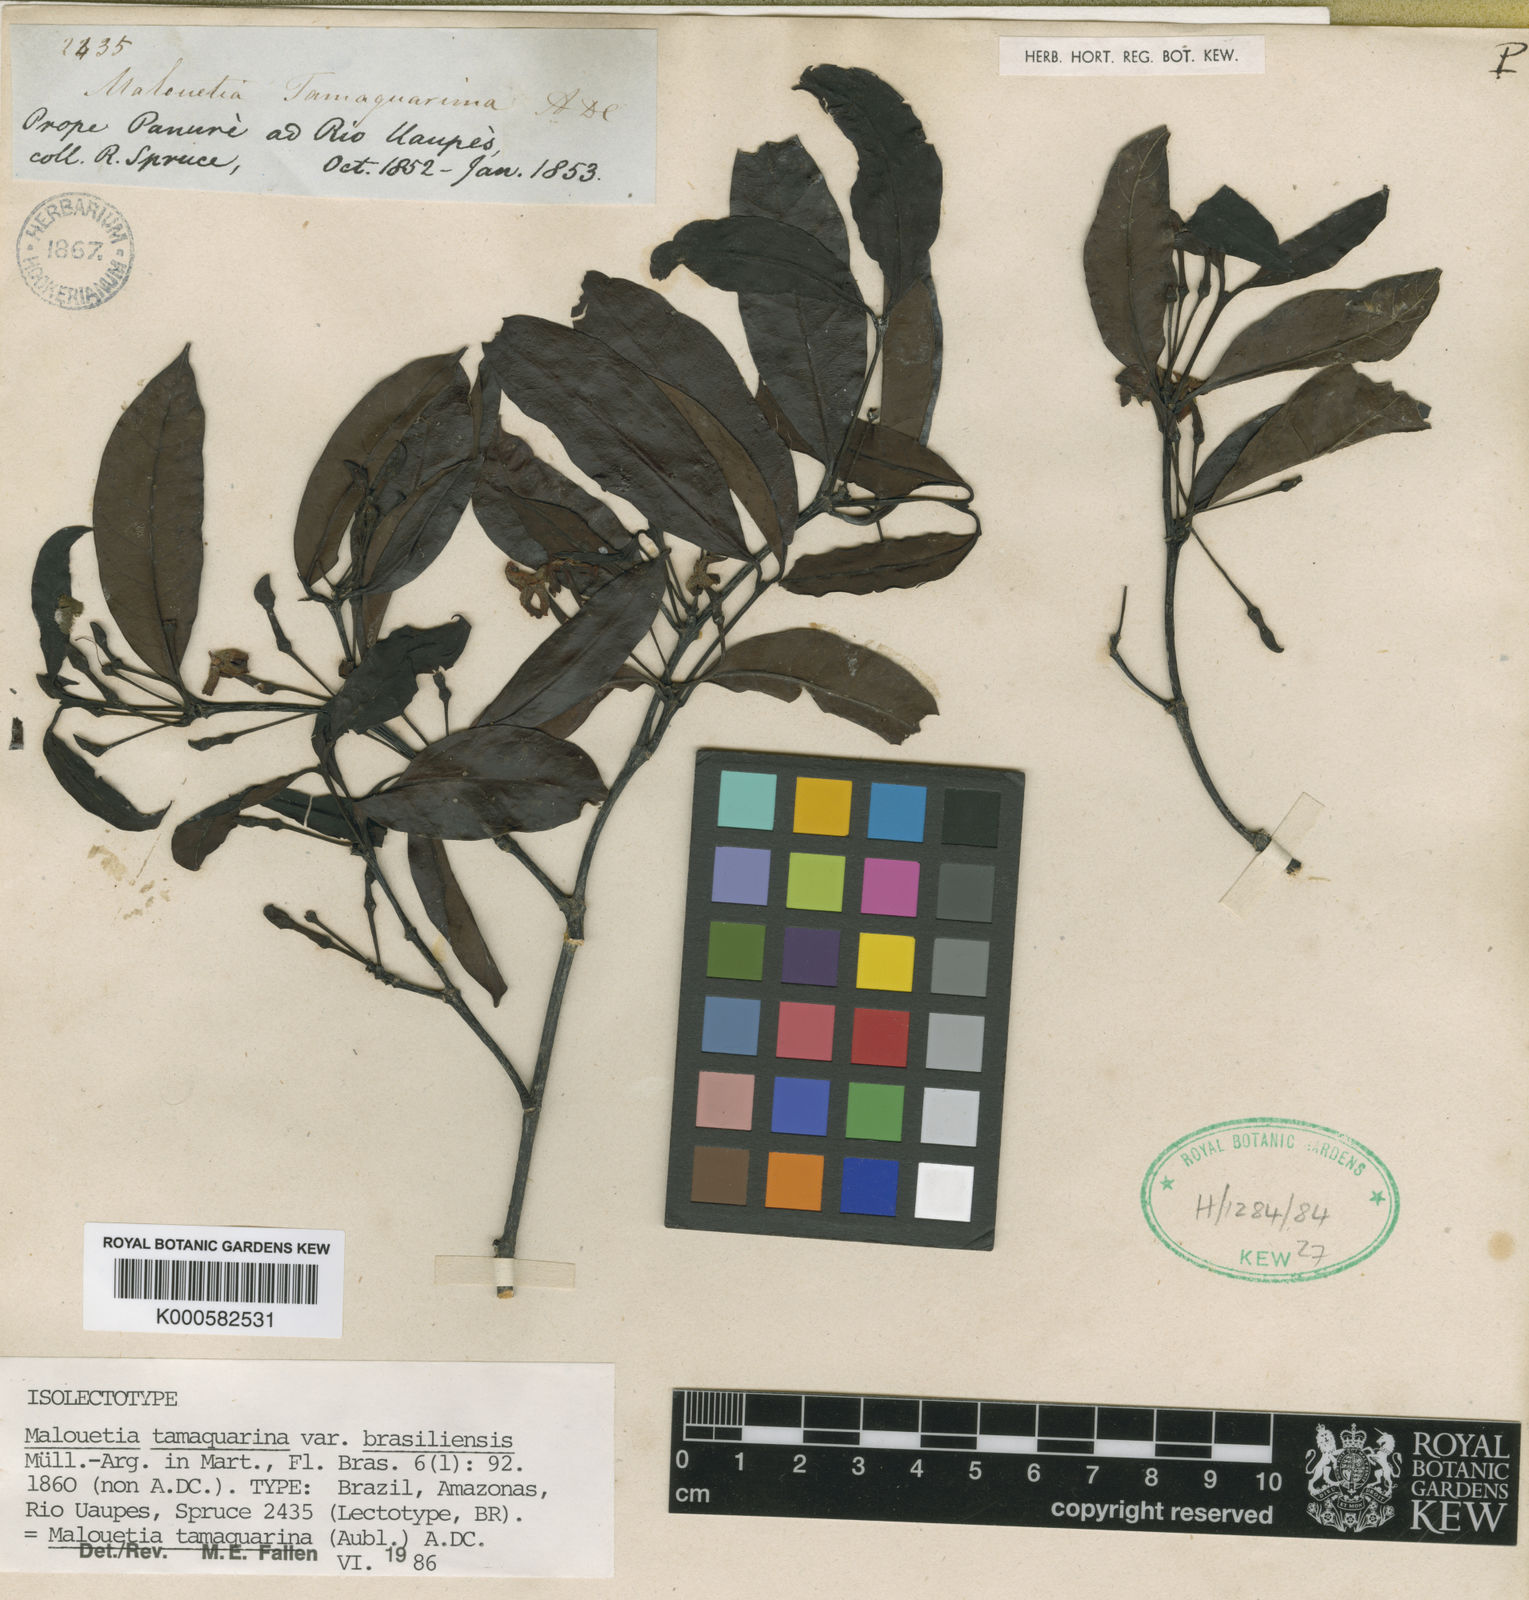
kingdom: Plantae
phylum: Tracheophyta
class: Magnoliopsida
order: Gentianales
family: Apocynaceae
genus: Malouetia
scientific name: Malouetia tamaquarina
